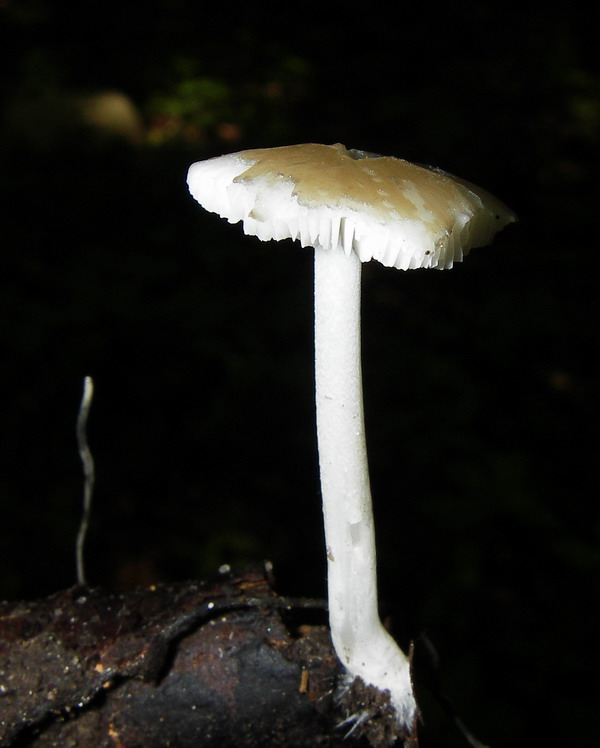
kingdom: Fungi
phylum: Basidiomycota
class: Agaricomycetes
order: Agaricales
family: Porotheleaceae
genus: Hydropodia
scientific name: Hydropodia subalpina
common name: vår-fnugfod
